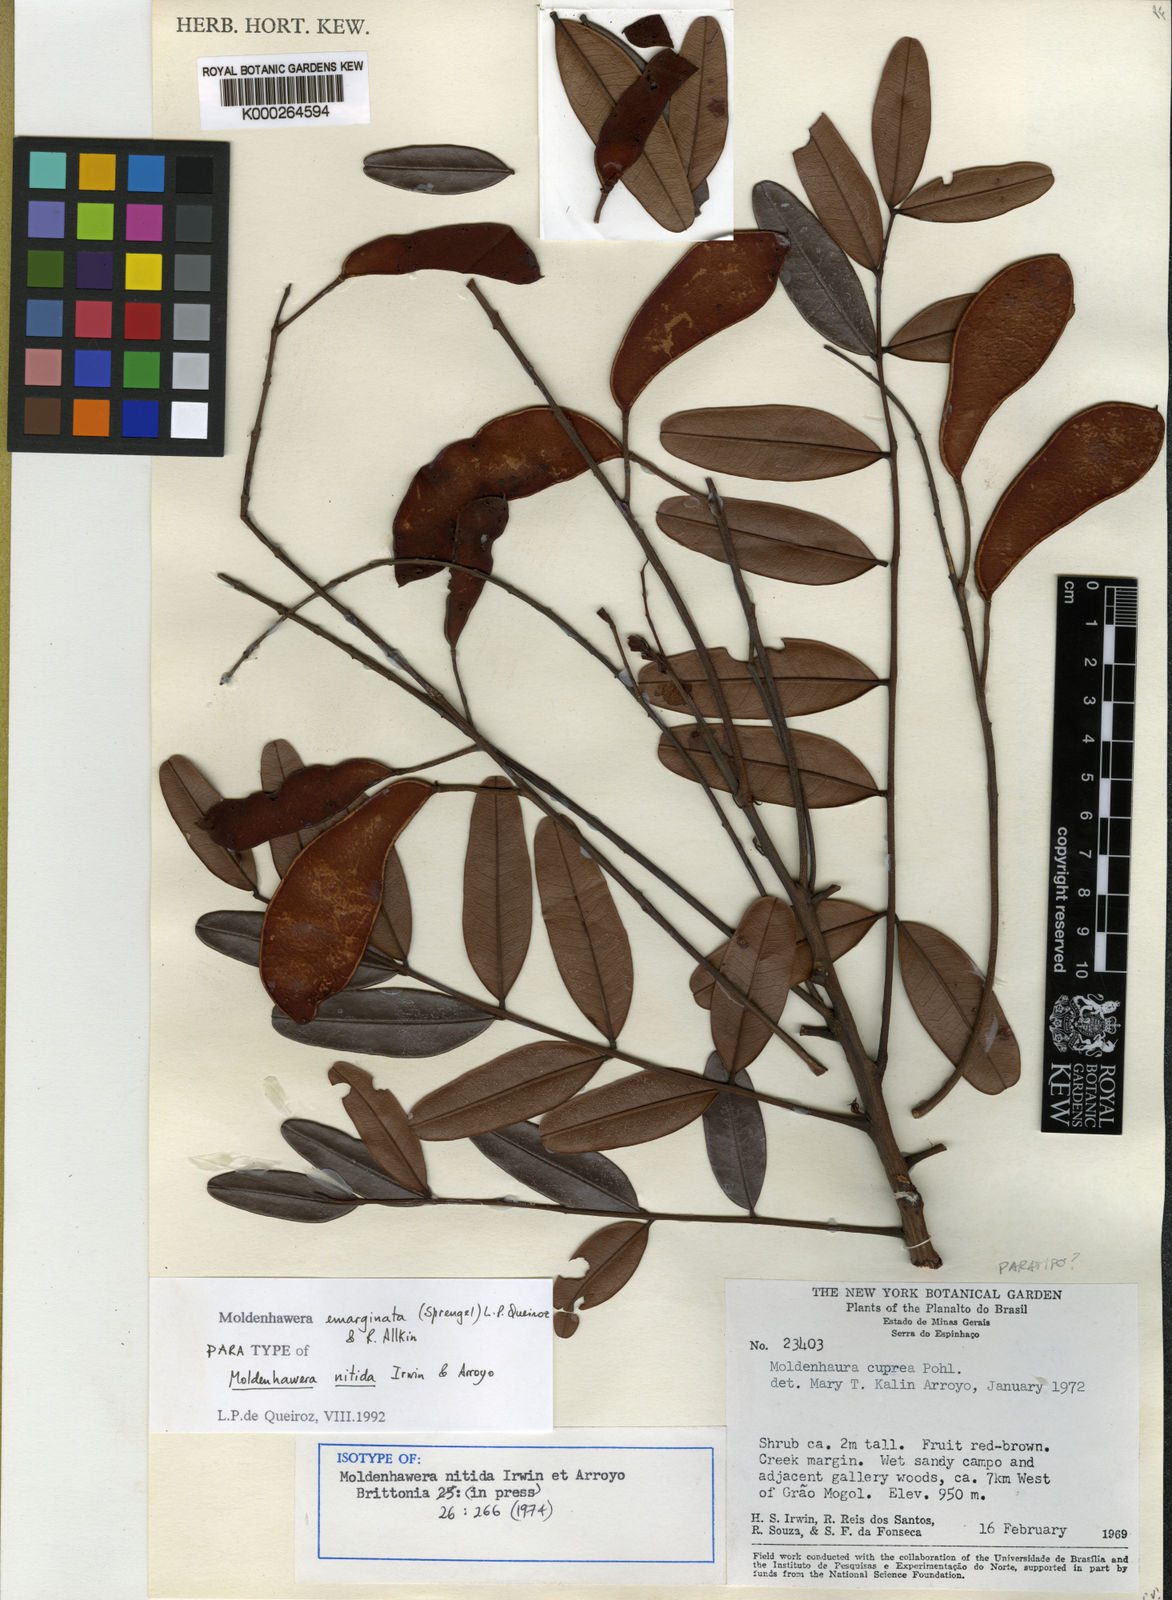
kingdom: Plantae
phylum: Tracheophyta
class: Magnoliopsida
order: Fabales
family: Fabaceae
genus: Moldenhawera
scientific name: Moldenhawera emarginata
